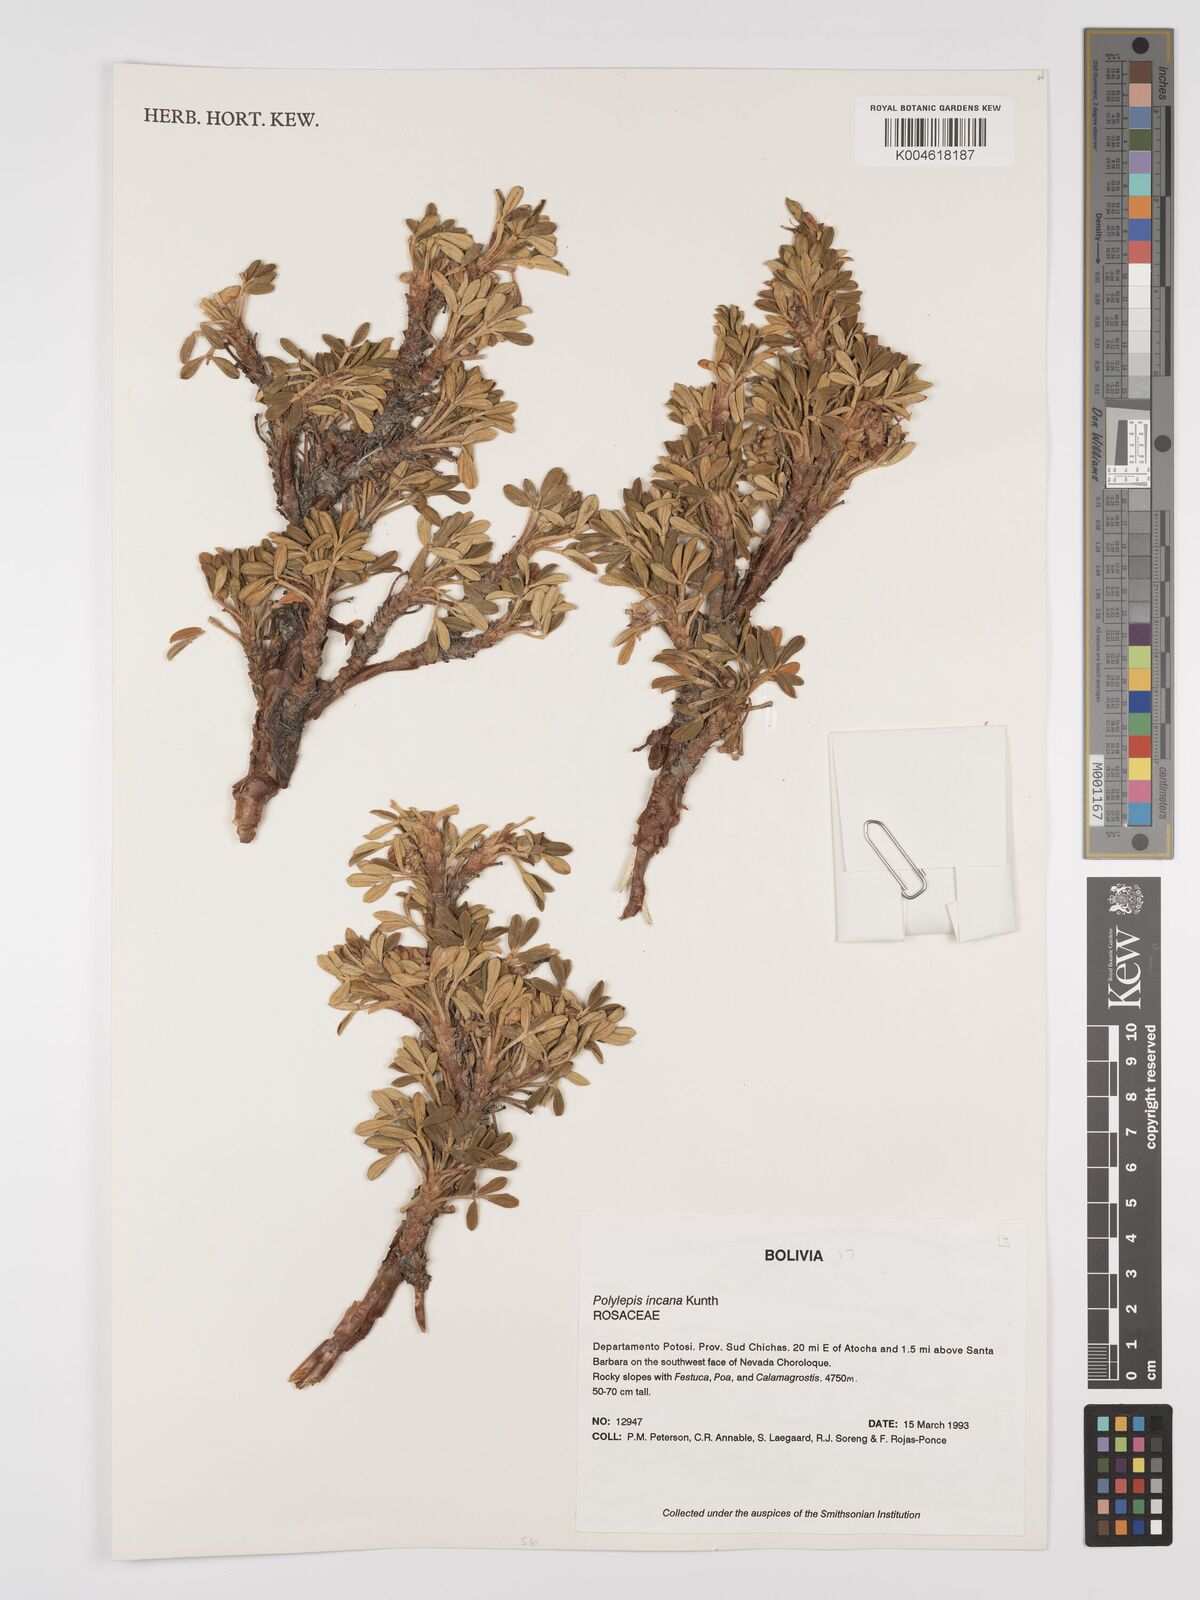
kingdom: Plantae
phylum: Tracheophyta
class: Magnoliopsida
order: Rosales
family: Rosaceae
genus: Polylepis
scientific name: Polylepis incana
